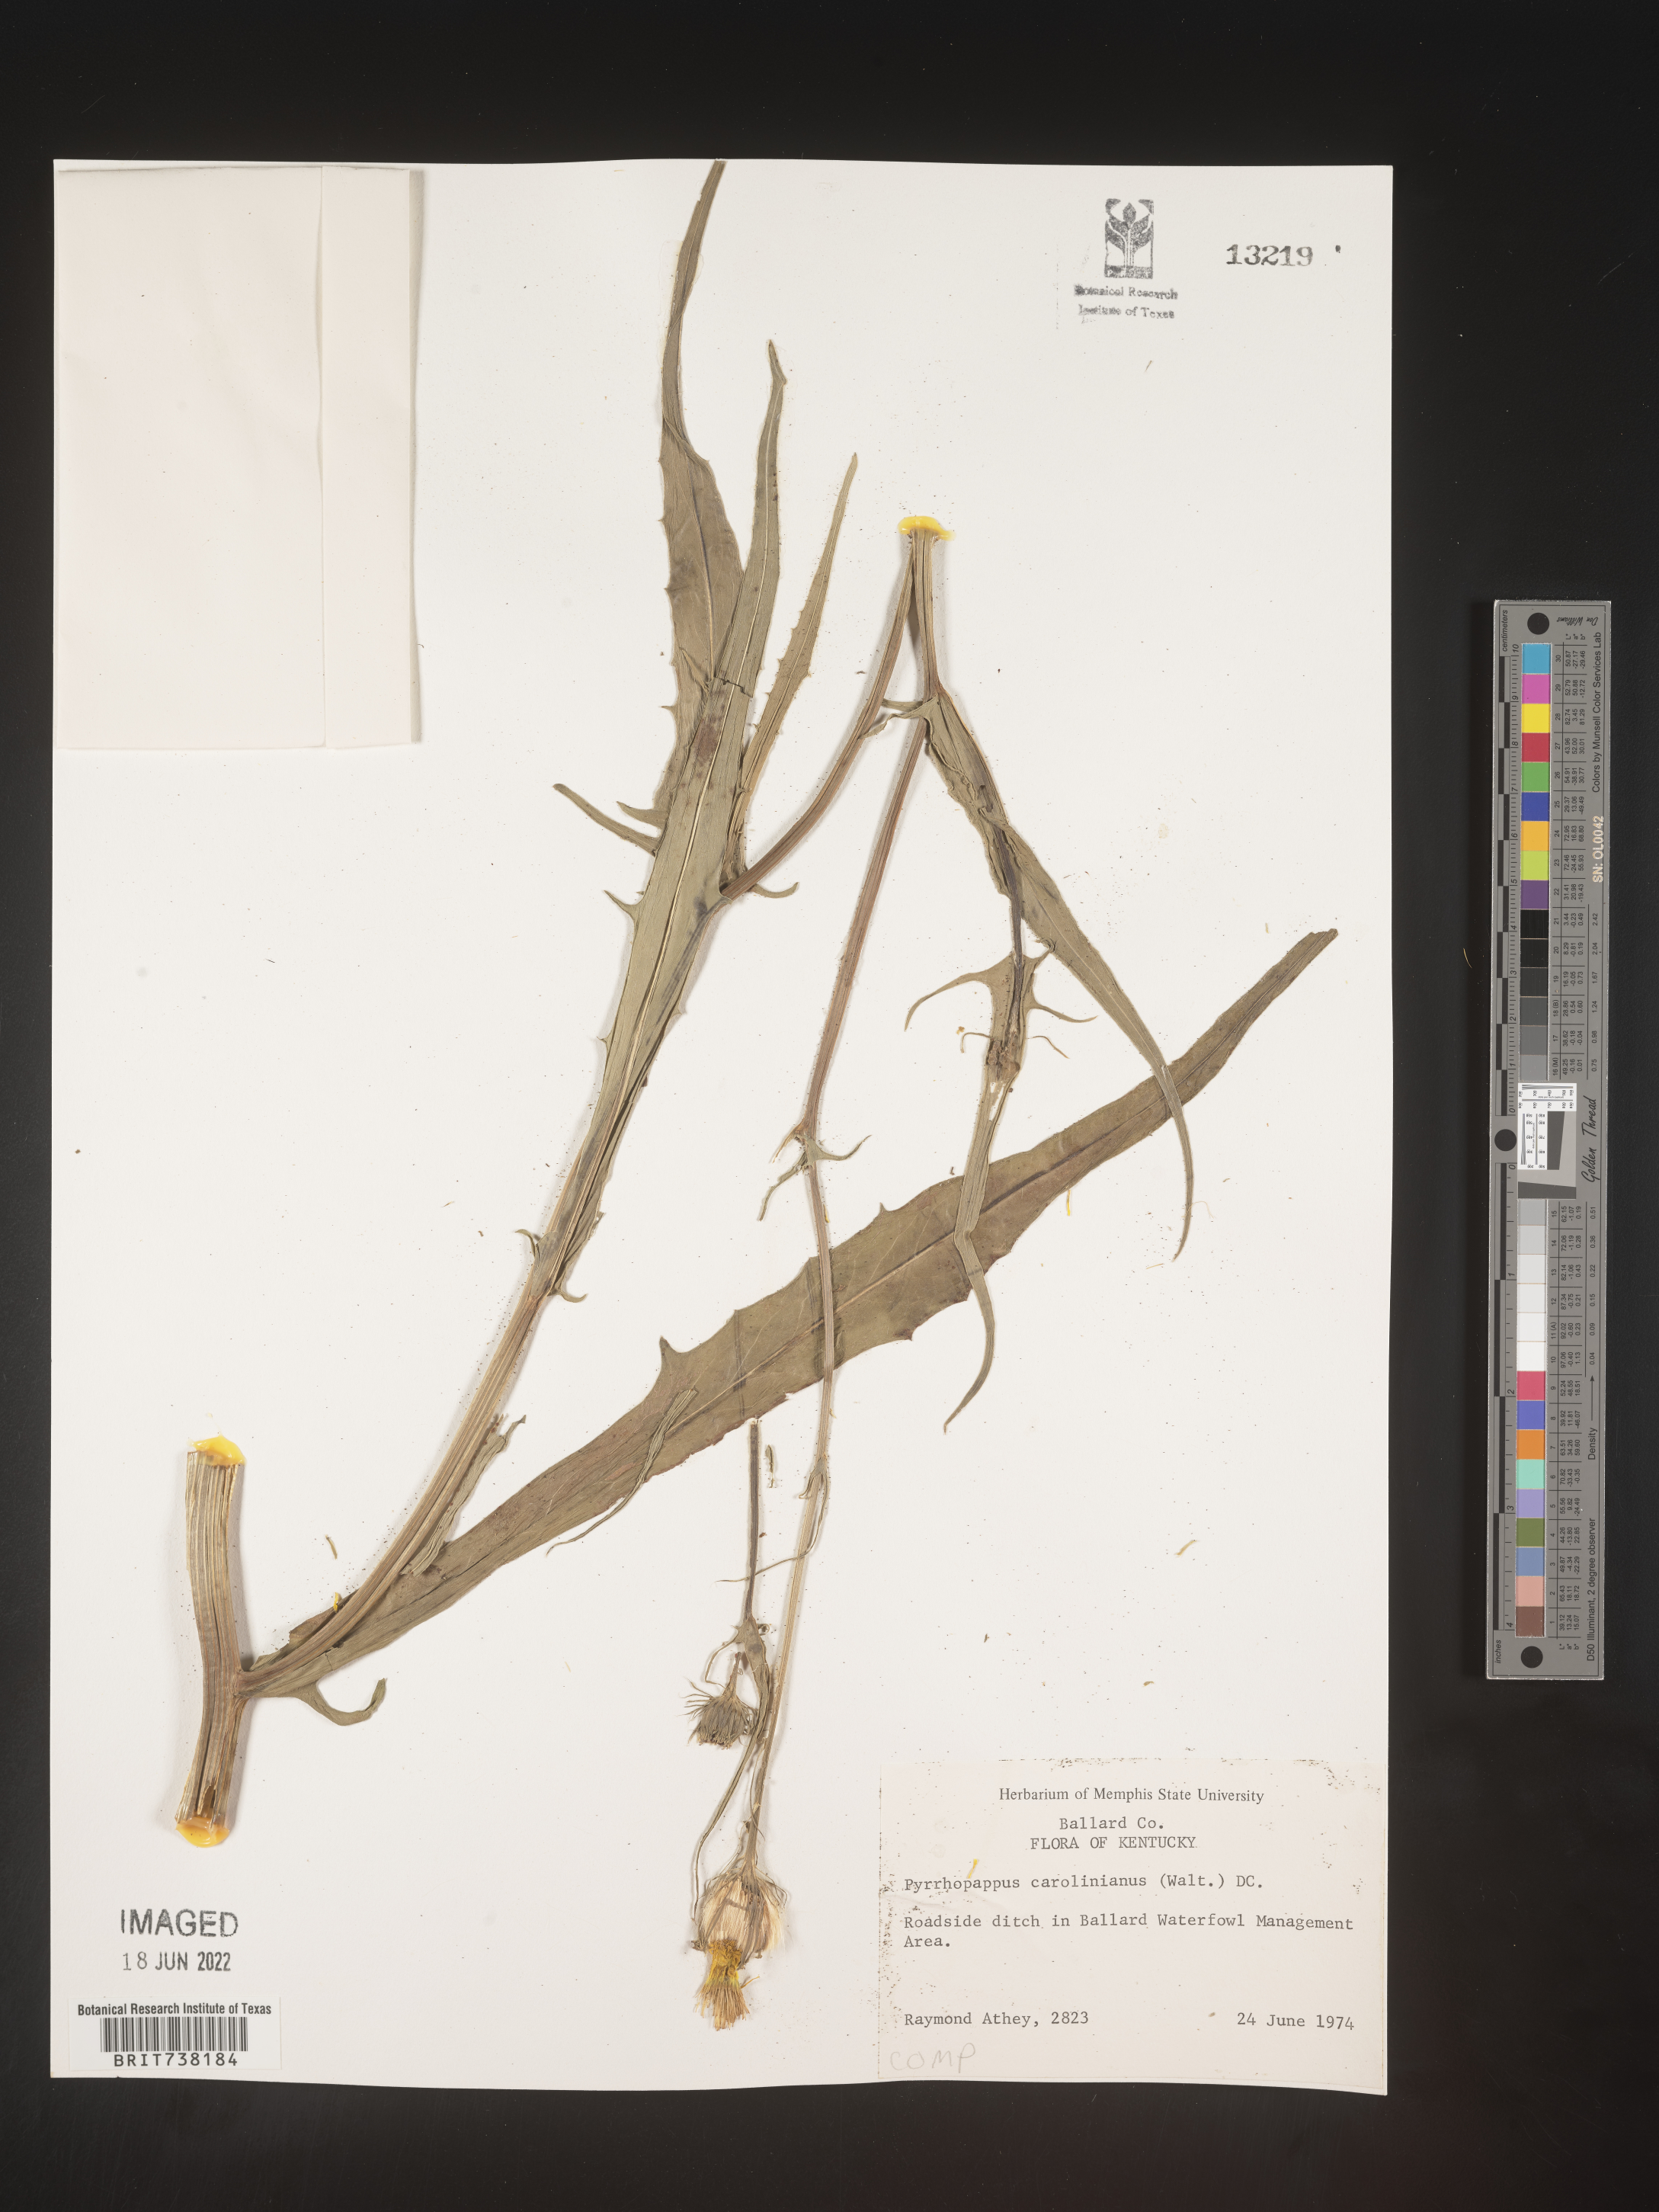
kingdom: Plantae
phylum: Tracheophyta
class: Magnoliopsida
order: Asterales
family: Asteraceae
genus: Pyrrhopappus
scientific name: Pyrrhopappus carolinianus
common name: Carolina desert-chicory
